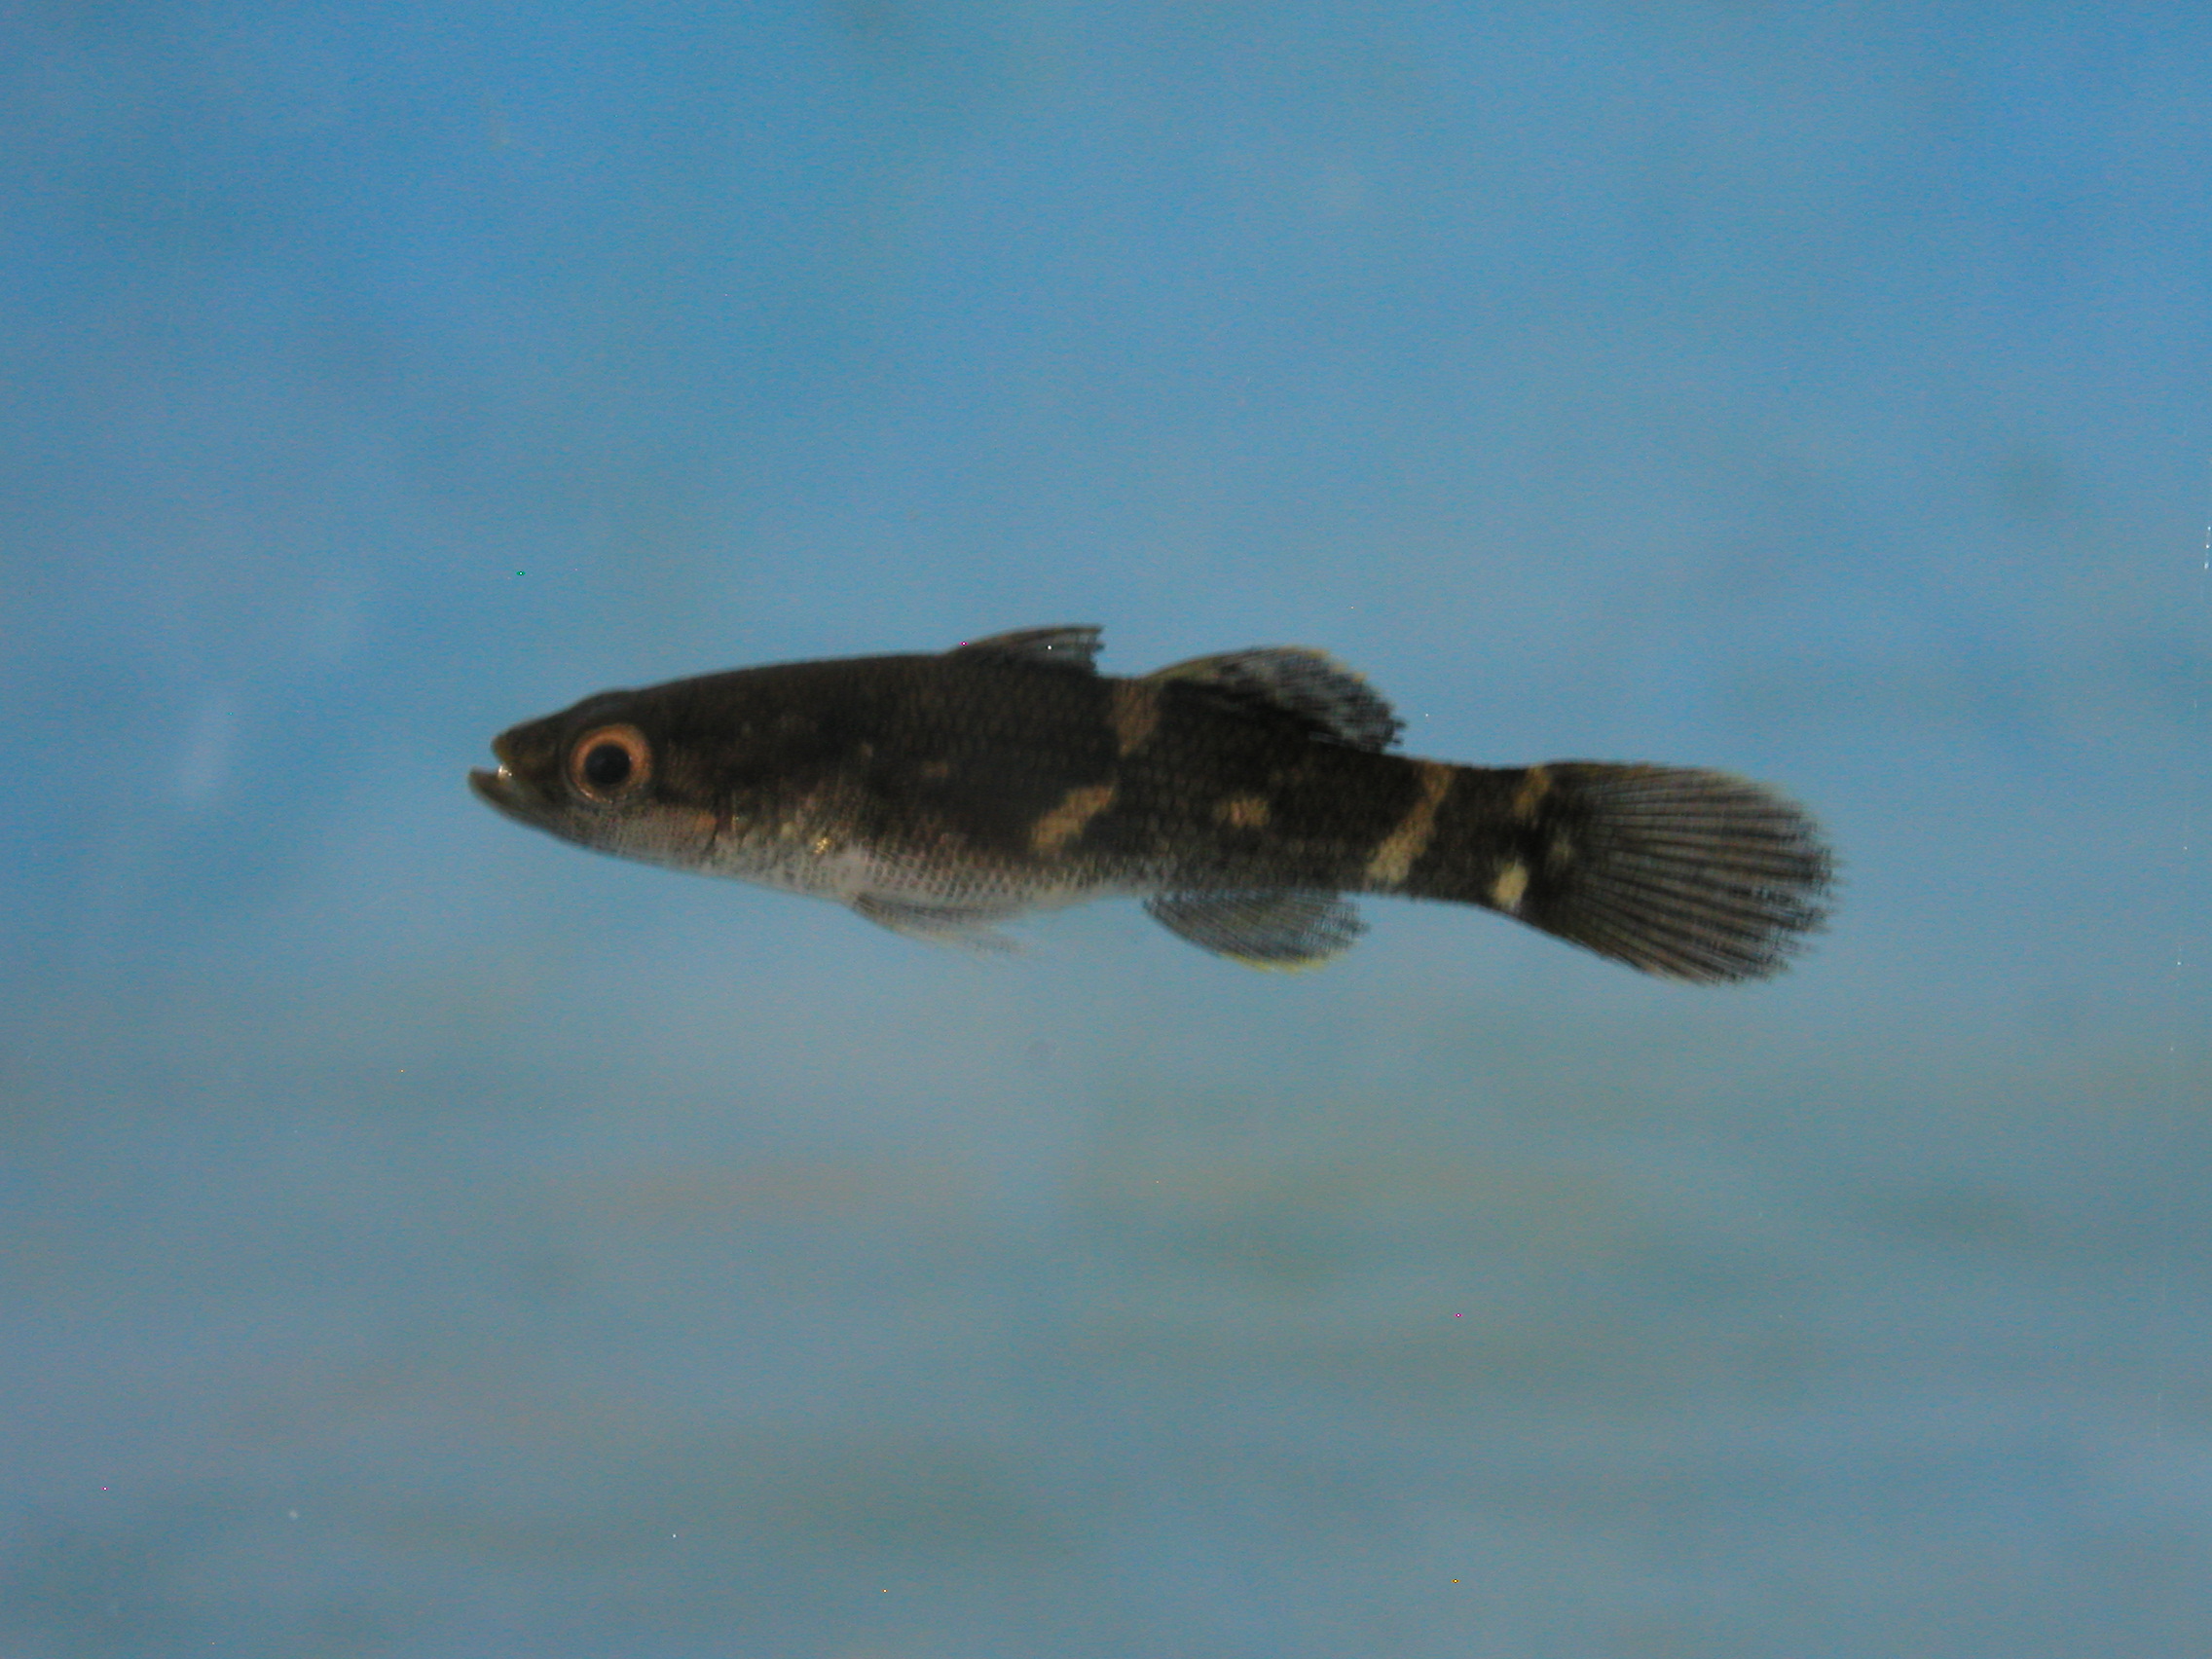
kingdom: Animalia
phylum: Chordata
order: Perciformes
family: Eleotridae
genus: Ophiocara
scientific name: Ophiocara porocephala
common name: Spangled gudgeon
